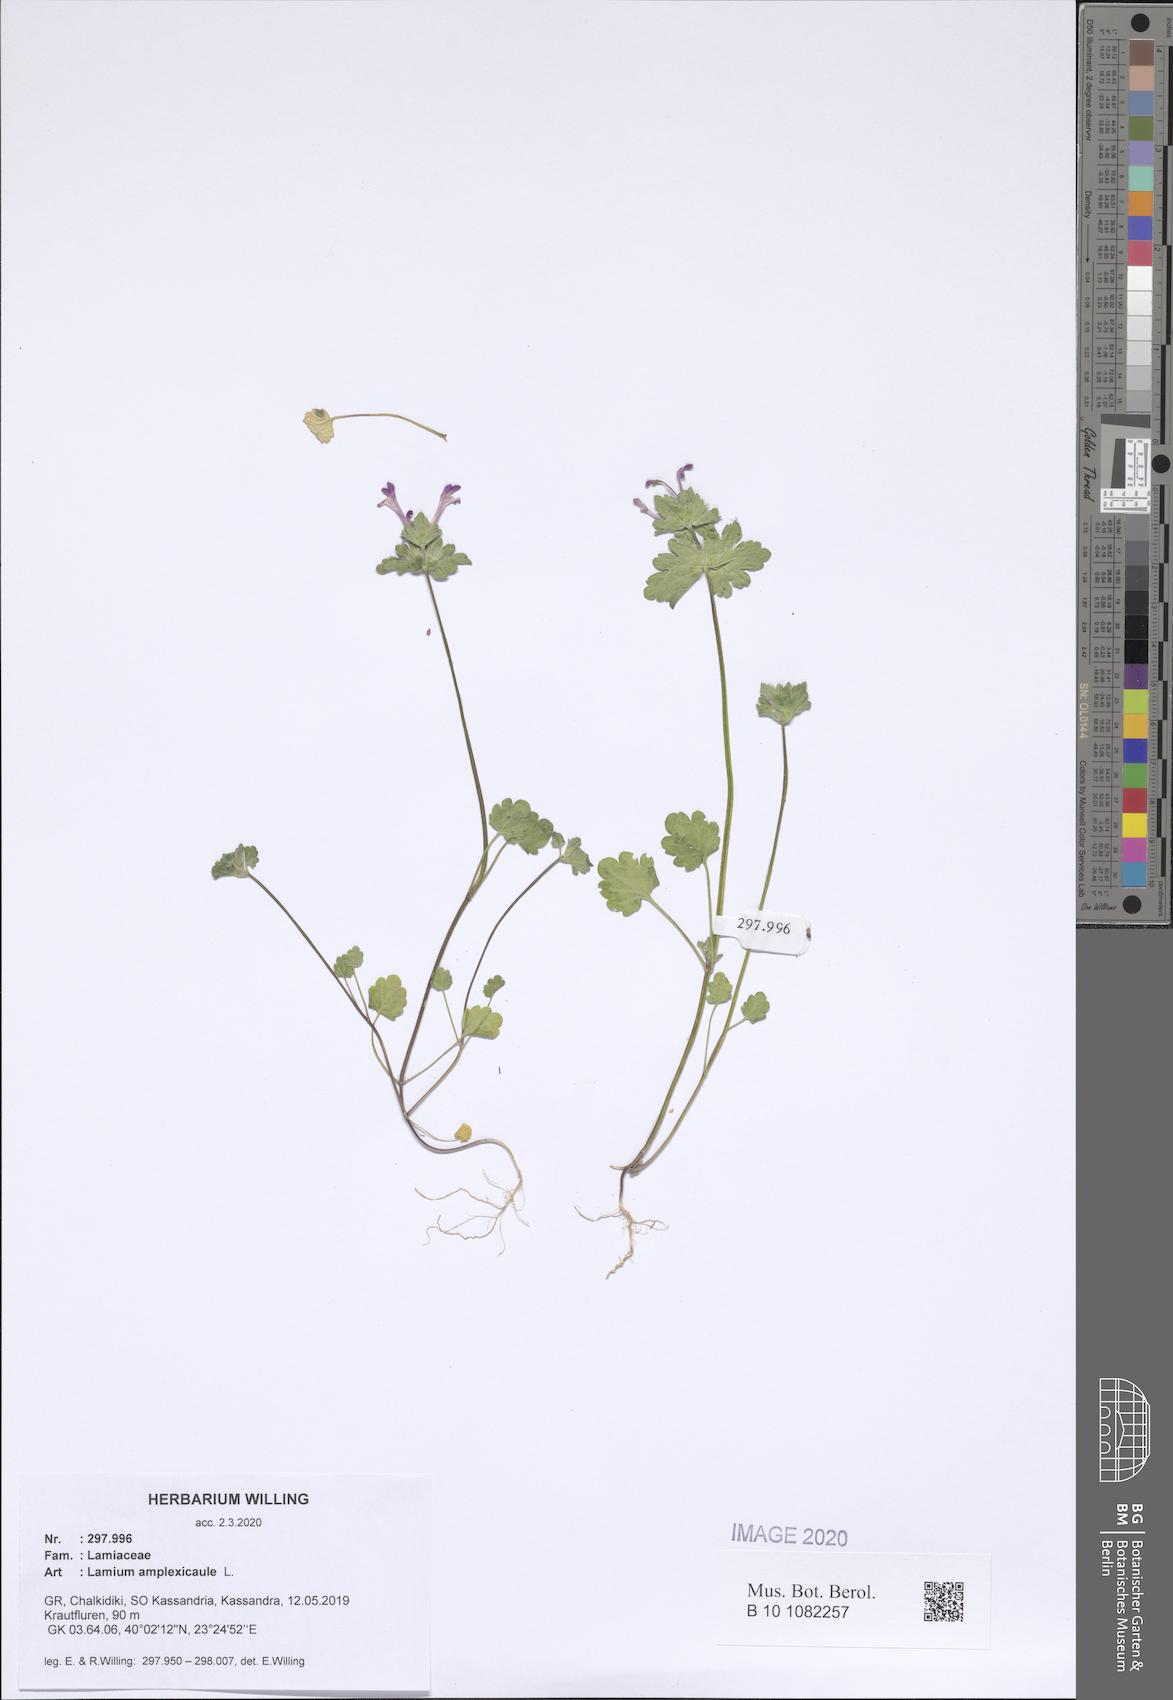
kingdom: Plantae
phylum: Tracheophyta
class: Magnoliopsida
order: Lamiales
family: Lamiaceae
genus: Lamium
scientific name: Lamium amplexicaule
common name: Henbit dead-nettle
